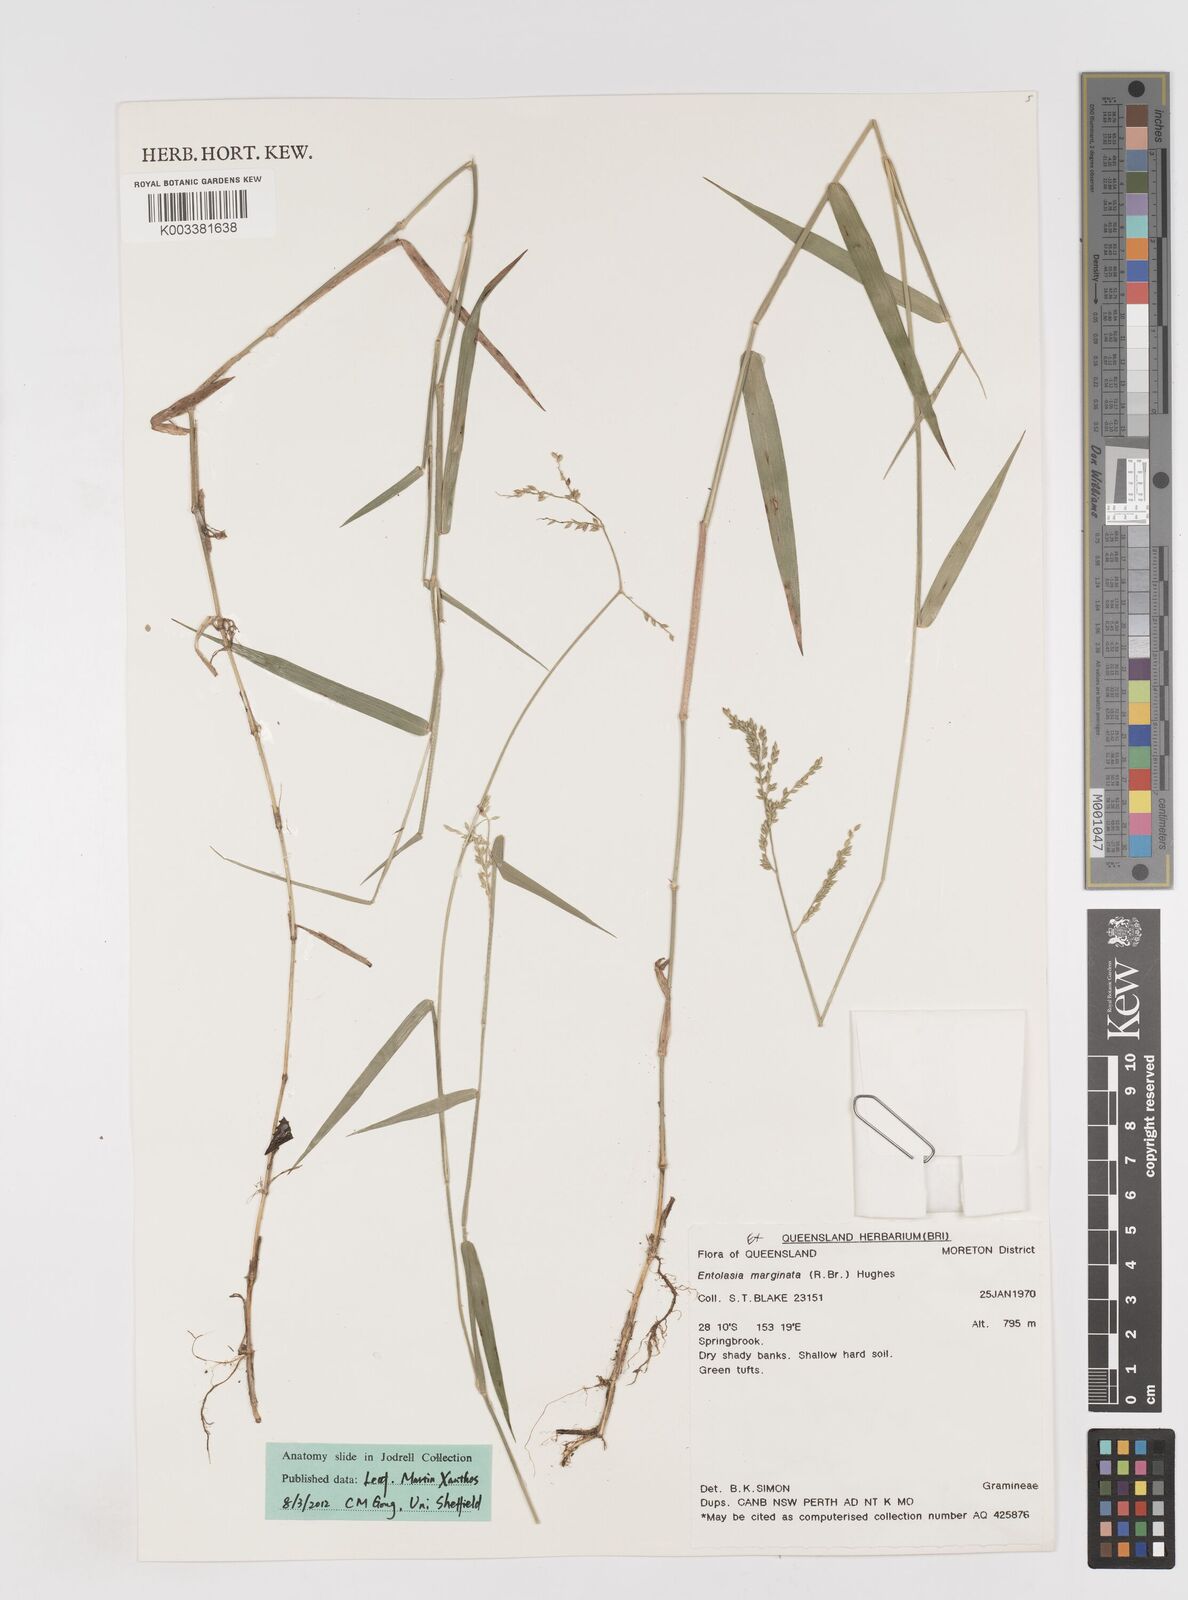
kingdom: Plantae
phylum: Tracheophyta
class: Liliopsida
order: Poales
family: Poaceae
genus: Entolasia
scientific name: Entolasia marginata
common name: Australian panicgrass
